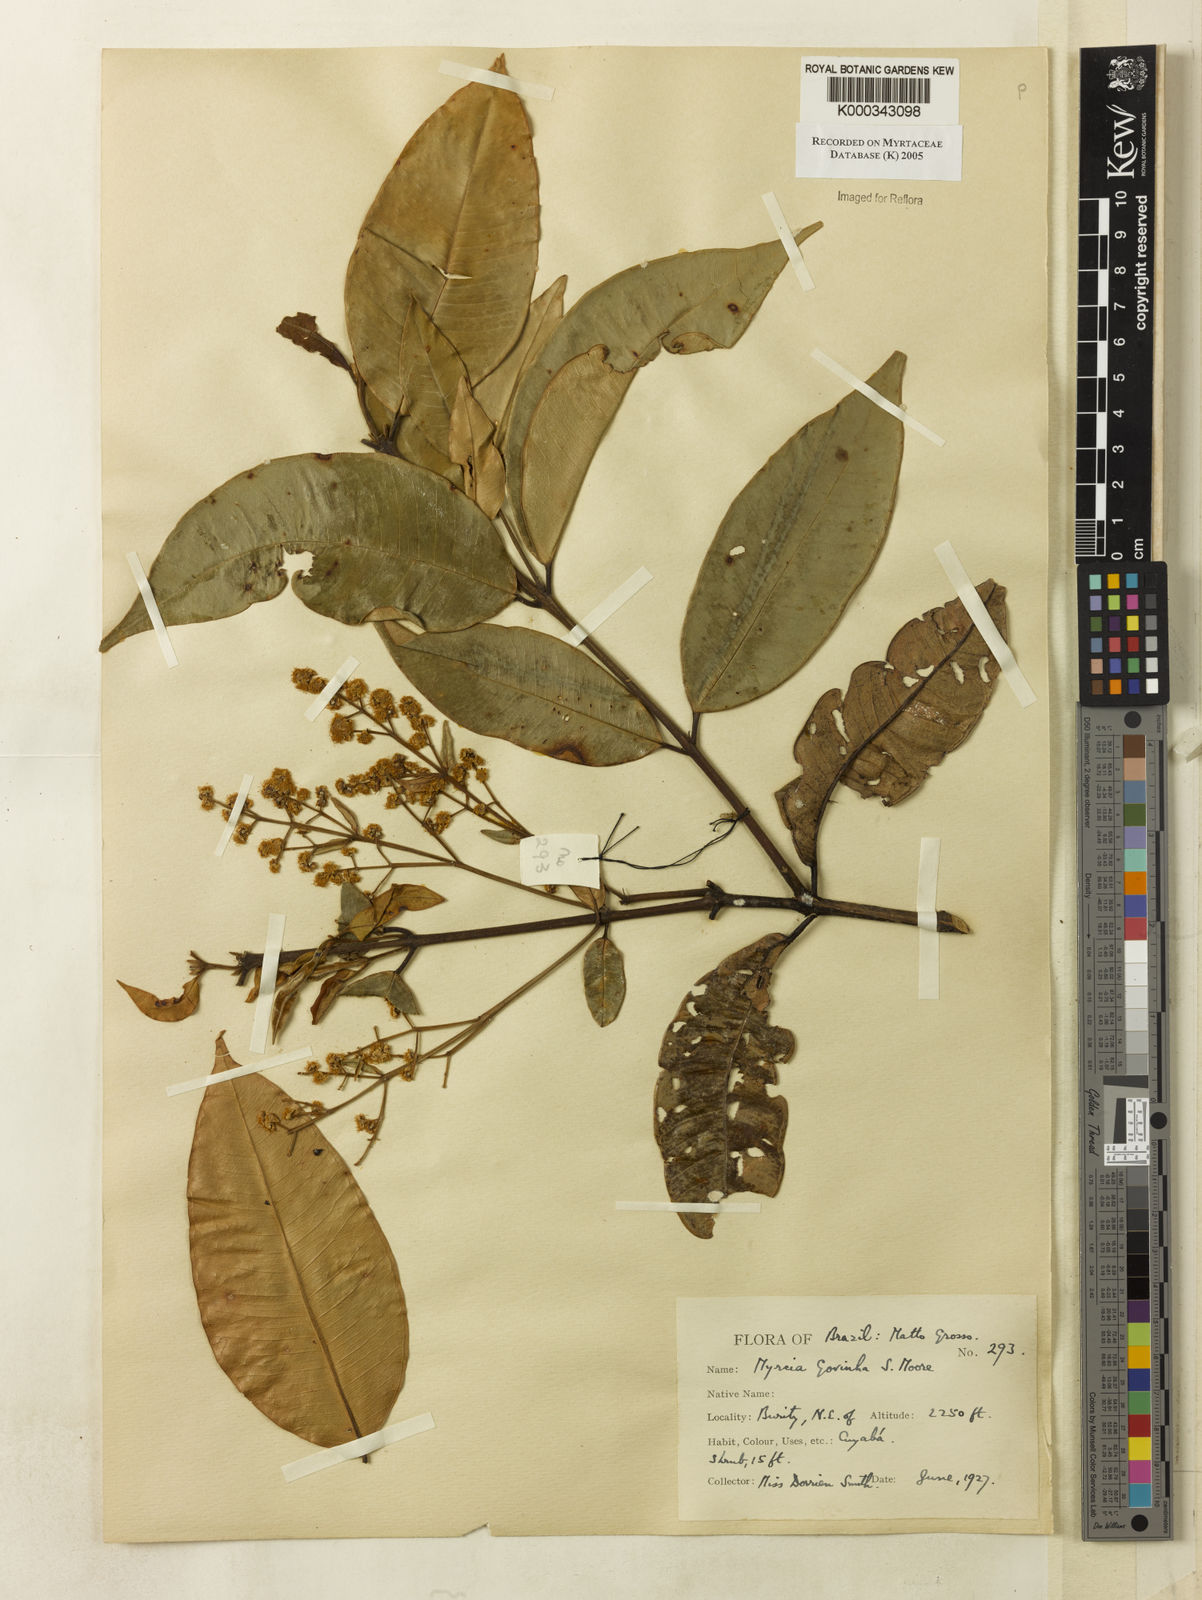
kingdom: Plantae
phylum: Tracheophyta
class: Magnoliopsida
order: Myrtales
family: Myrtaceae
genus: Myrcia
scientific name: Myrcia govinha
